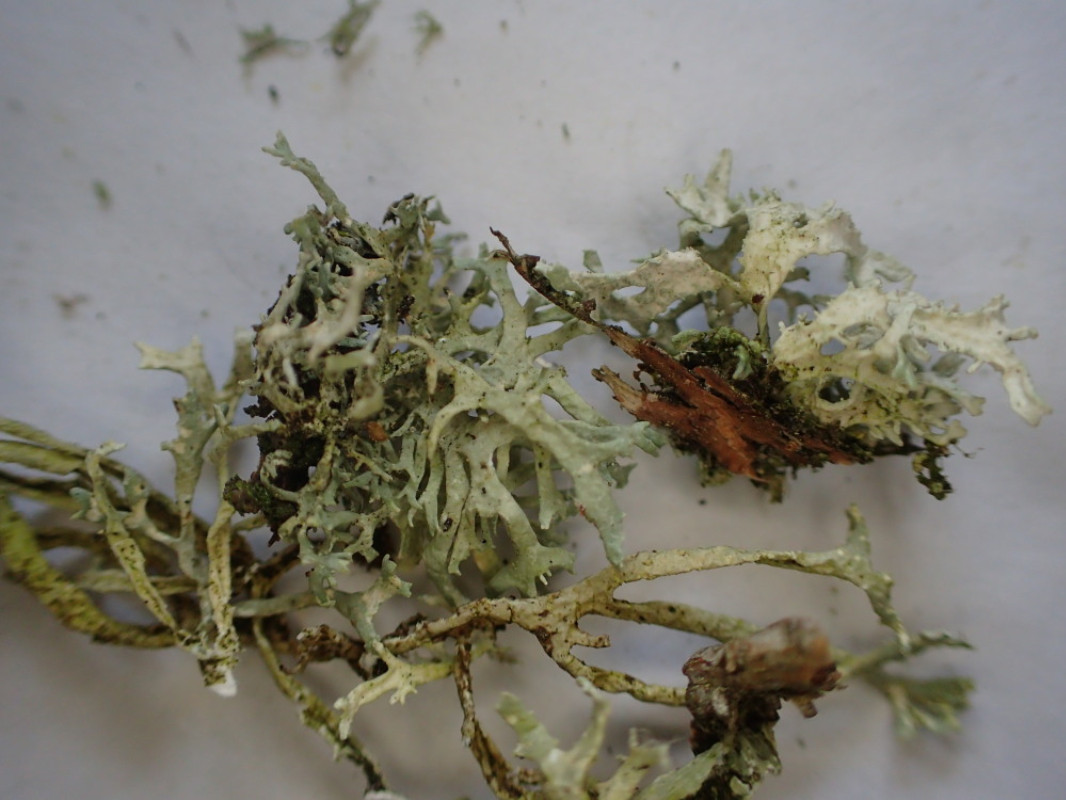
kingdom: Fungi
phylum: Ascomycota
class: Lecanoromycetes
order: Lecanorales
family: Parmeliaceae
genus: Evernia
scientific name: Evernia prunastri
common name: almindelig slåenlav
